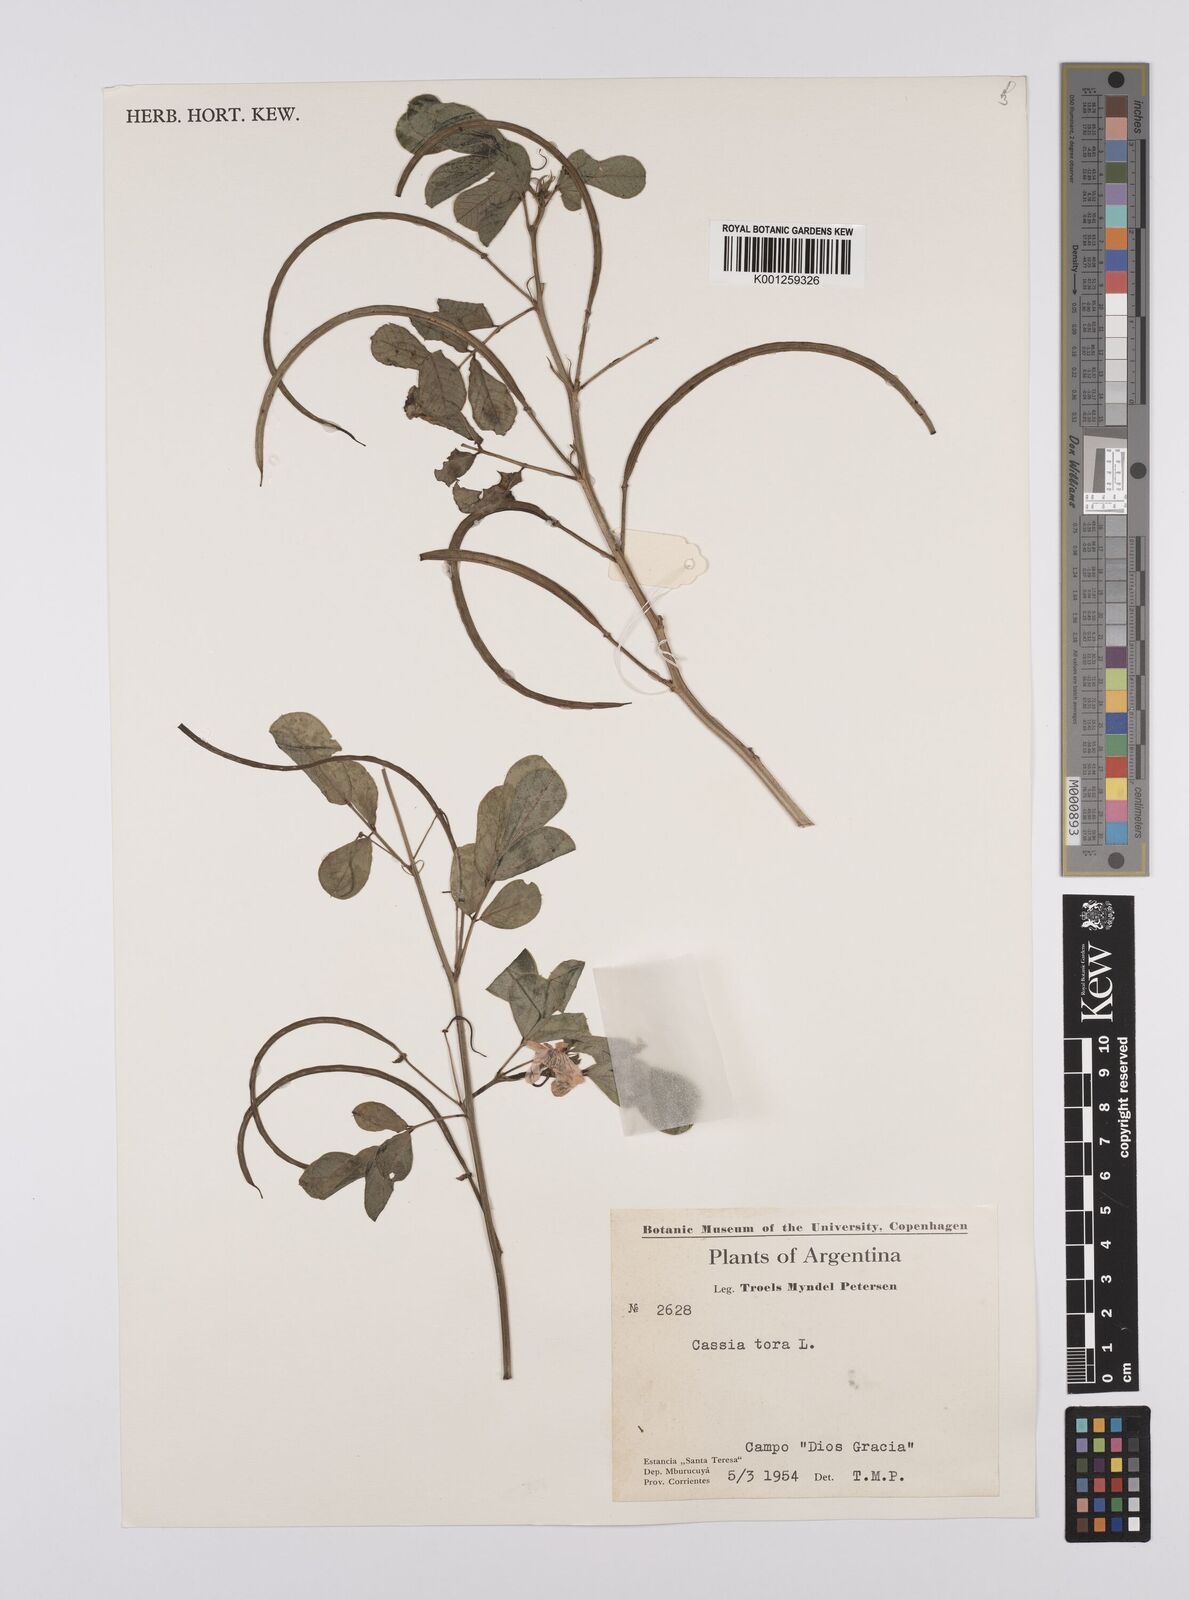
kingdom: Plantae
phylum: Tracheophyta
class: Magnoliopsida
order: Fabales
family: Fabaceae
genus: Senna
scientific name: Senna obtusifolia
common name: Java-bean
